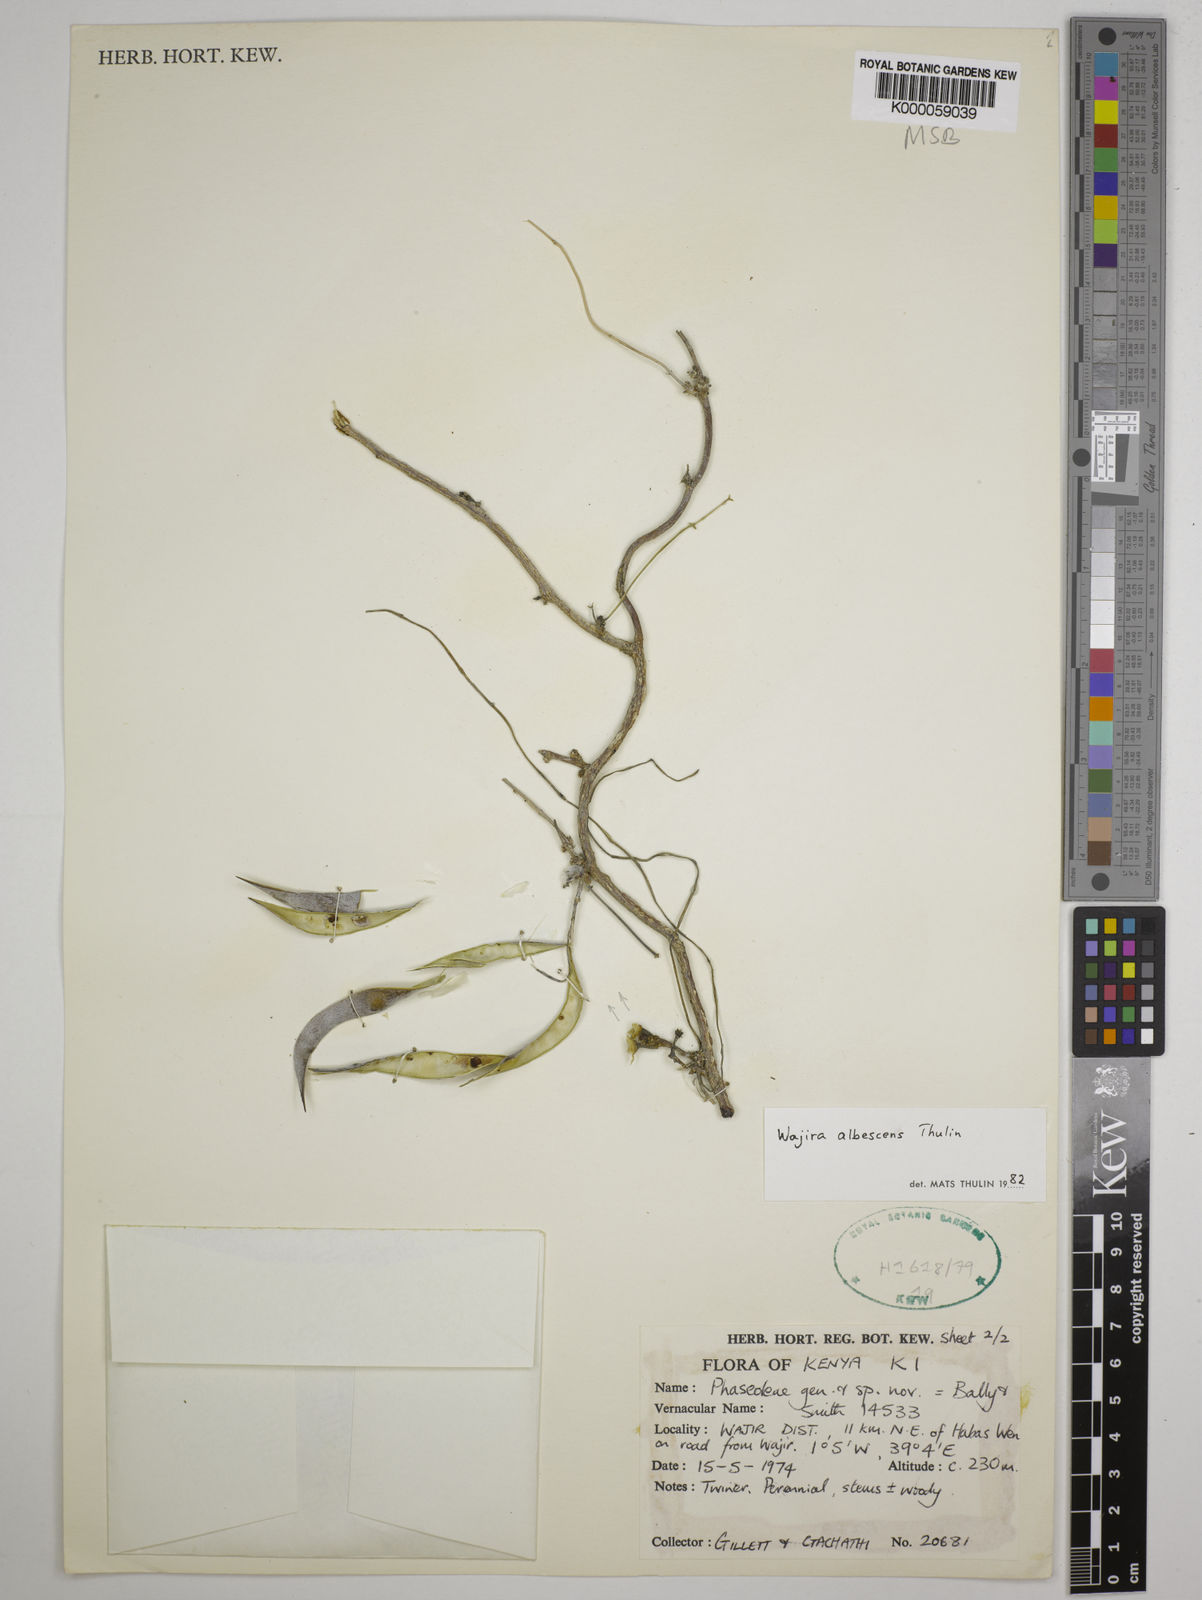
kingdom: Plantae
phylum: Tracheophyta
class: Magnoliopsida
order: Fabales
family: Fabaceae
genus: Wajira
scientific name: Wajira albescens
